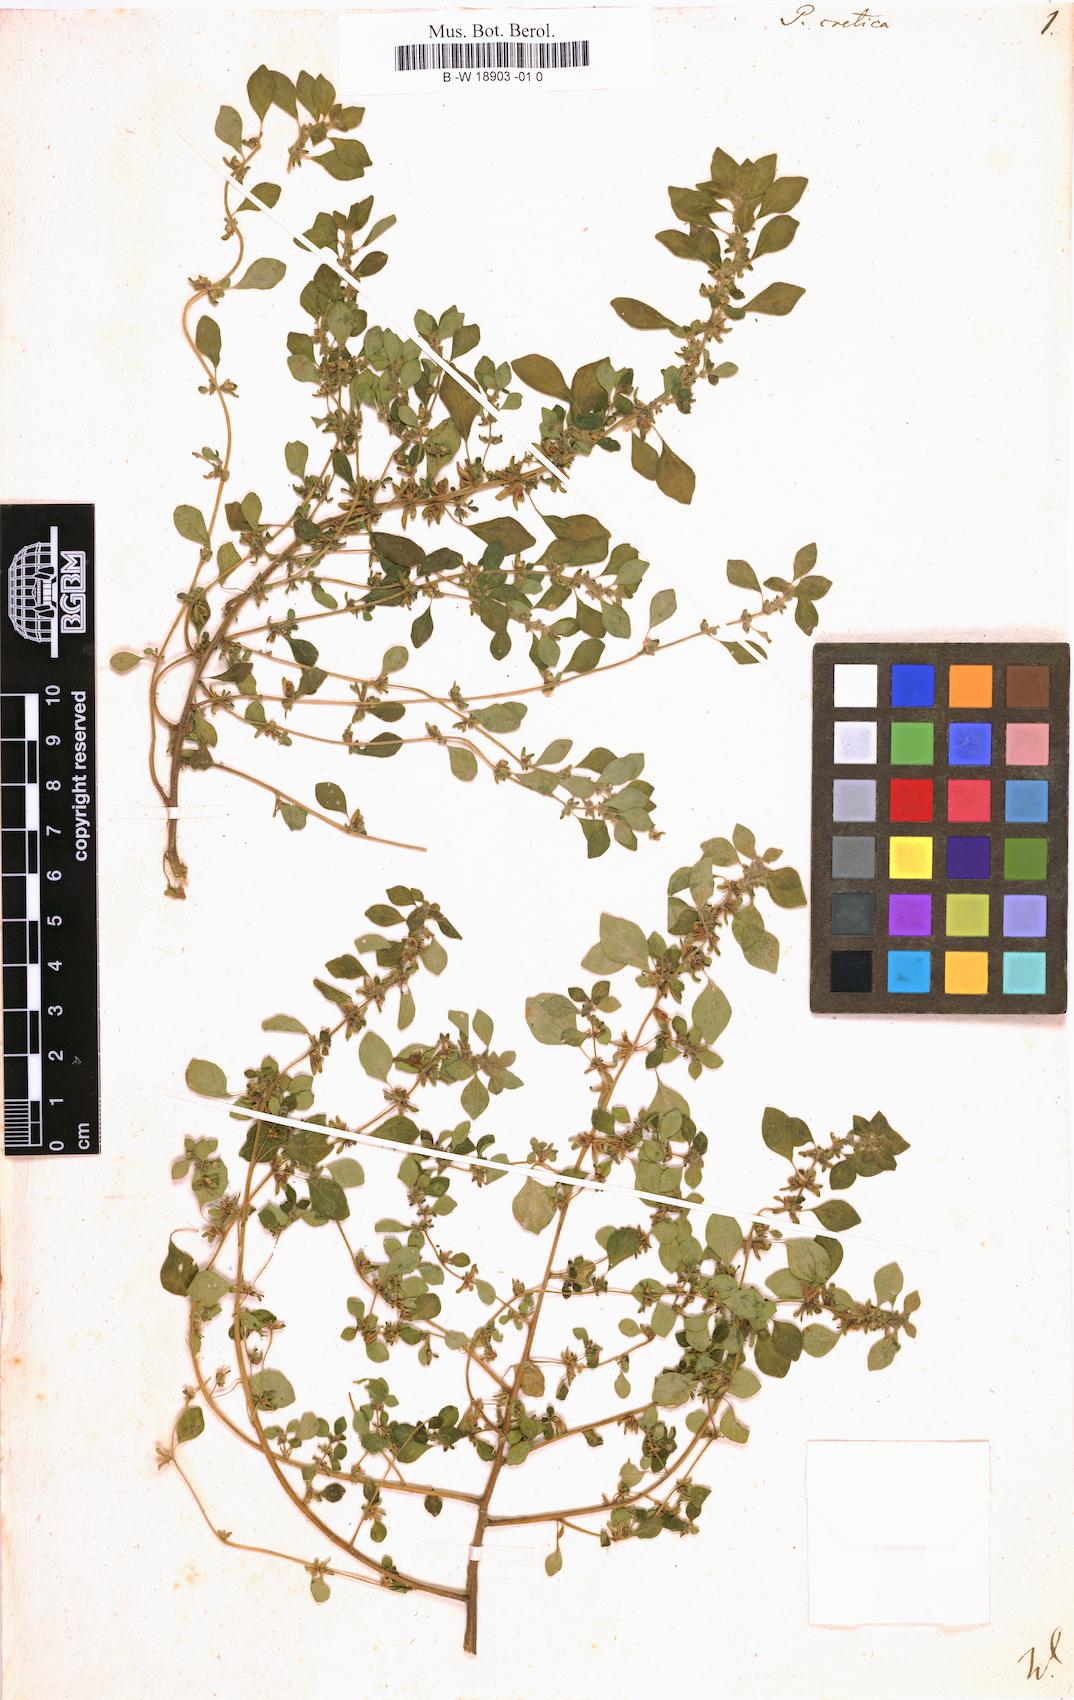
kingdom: Plantae
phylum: Tracheophyta
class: Magnoliopsida
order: Rosales
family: Urticaceae
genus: Parietaria
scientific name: Parietaria cretica
